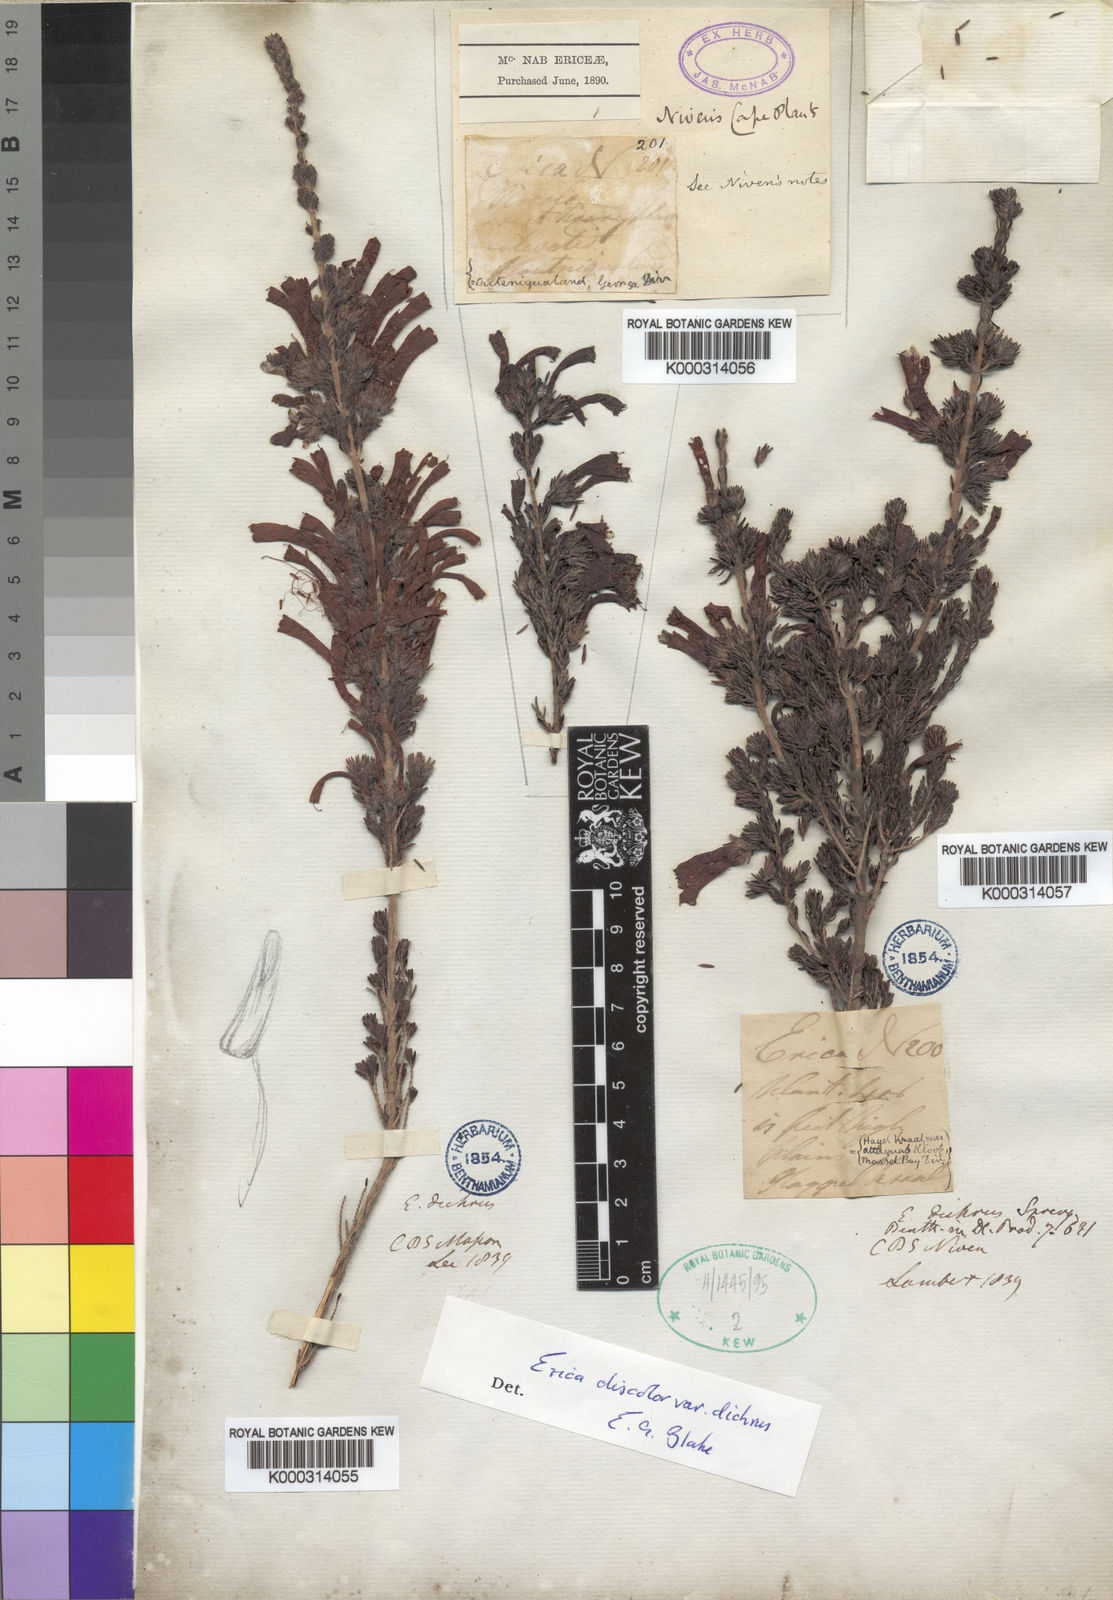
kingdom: Plantae
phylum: Tracheophyta
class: Magnoliopsida
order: Ericales
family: Ericaceae
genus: Erica
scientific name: Erica unicolor
